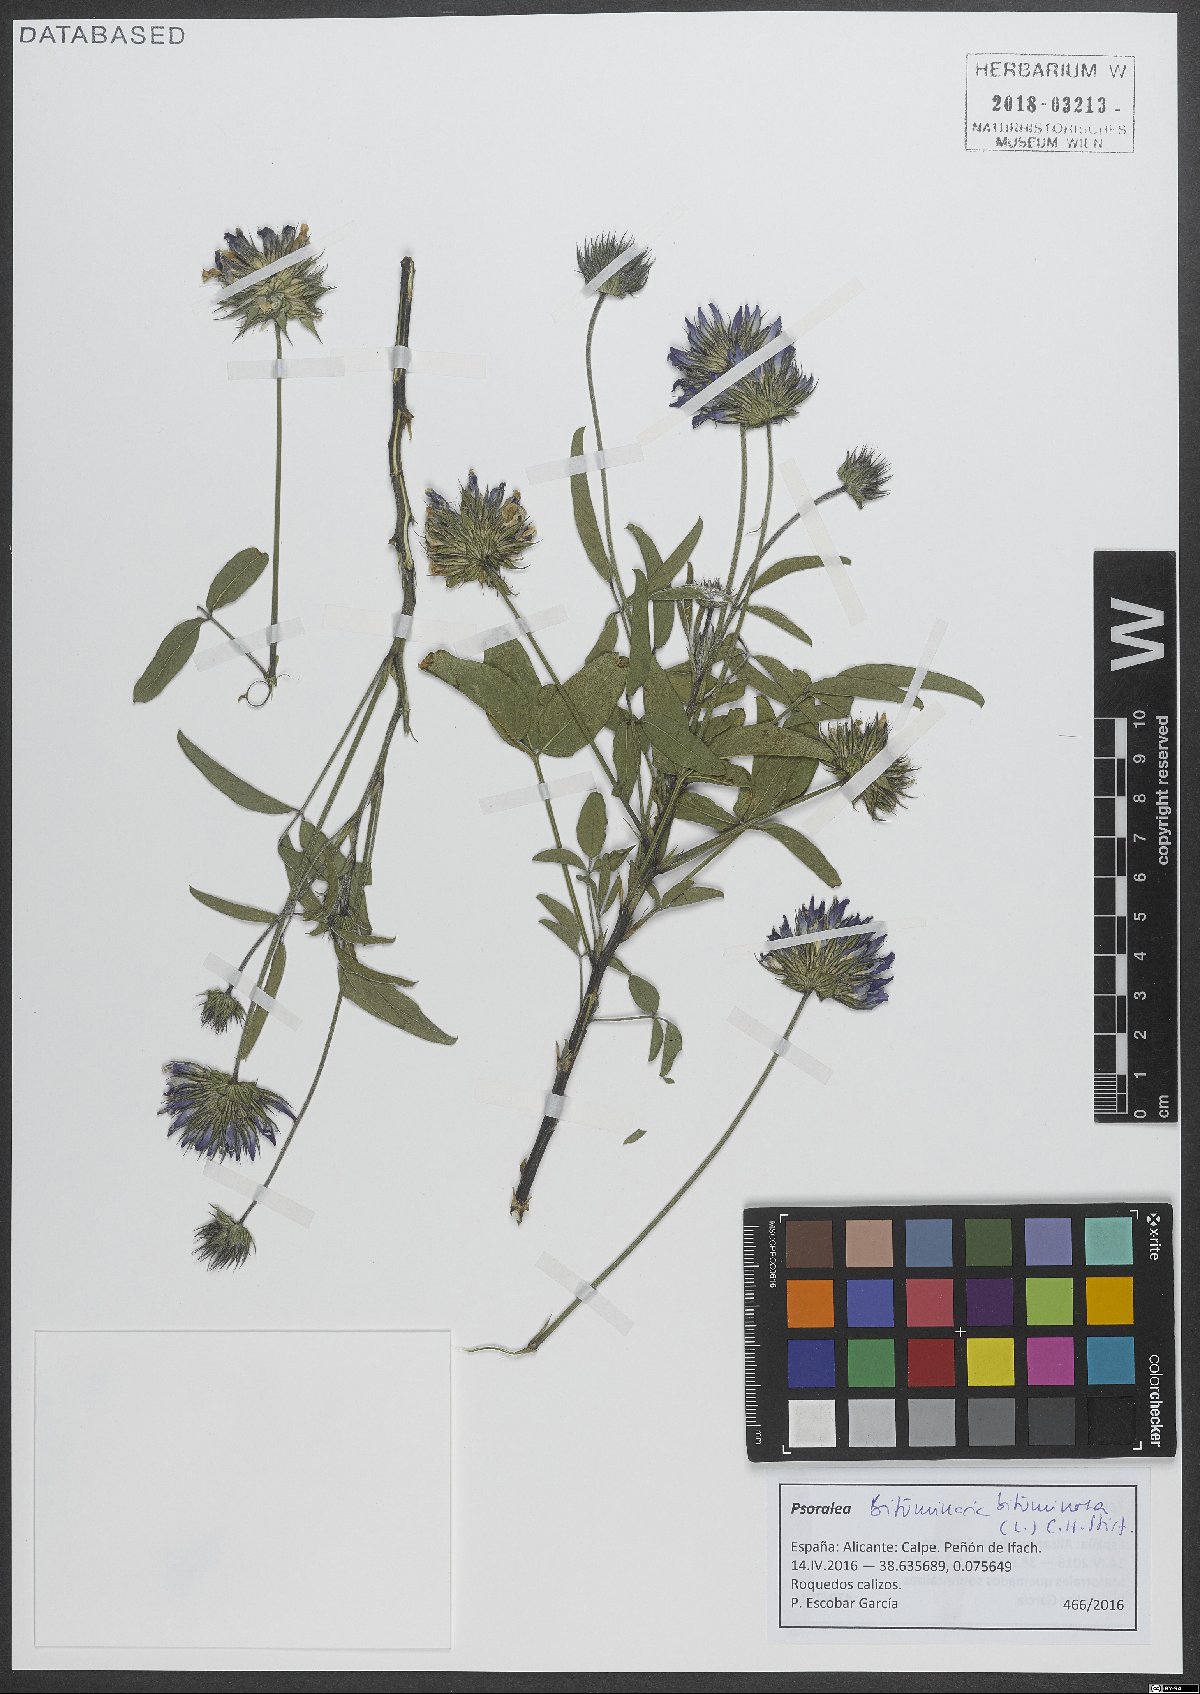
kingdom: Plantae
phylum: Tracheophyta
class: Magnoliopsida
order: Fabales
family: Fabaceae
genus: Bituminaria
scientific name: Bituminaria bituminosa
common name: Arabian pea
